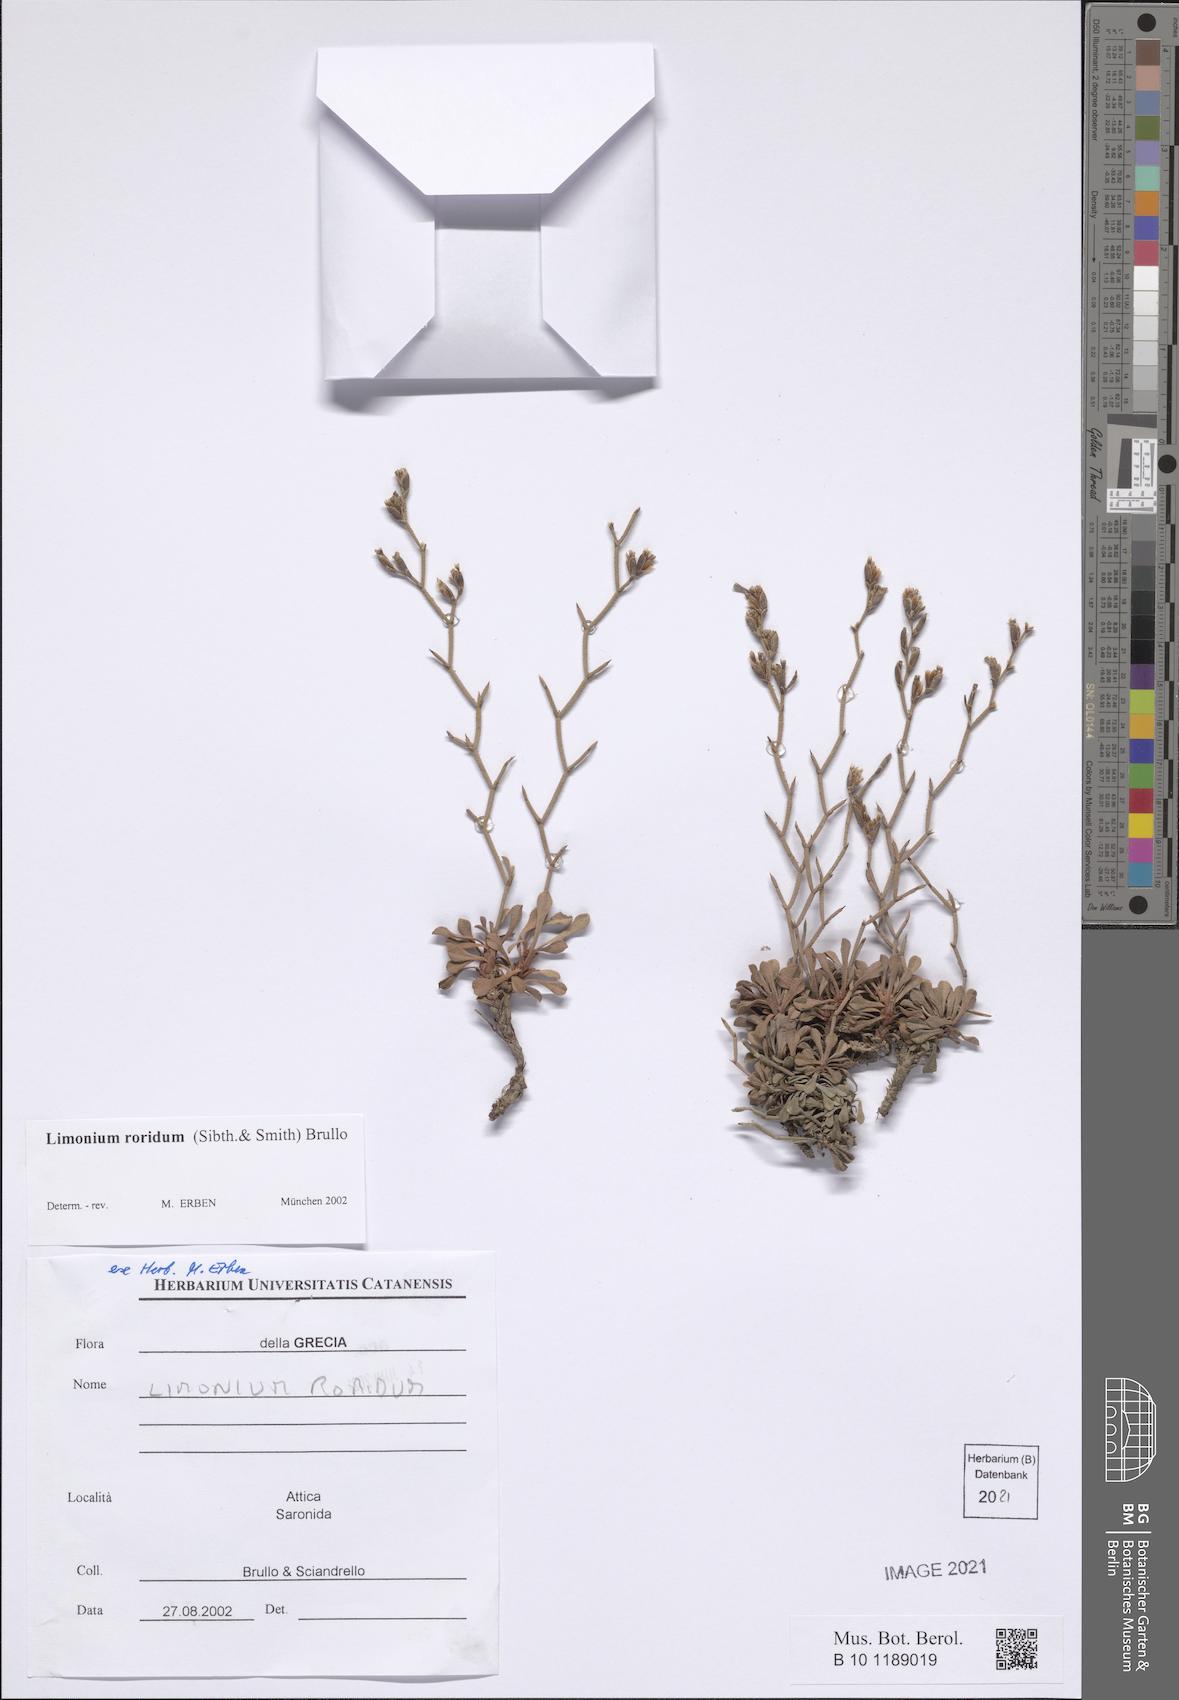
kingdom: Plantae
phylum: Tracheophyta
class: Magnoliopsida
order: Caryophyllales
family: Plumbaginaceae
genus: Limonium
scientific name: Limonium roridum
